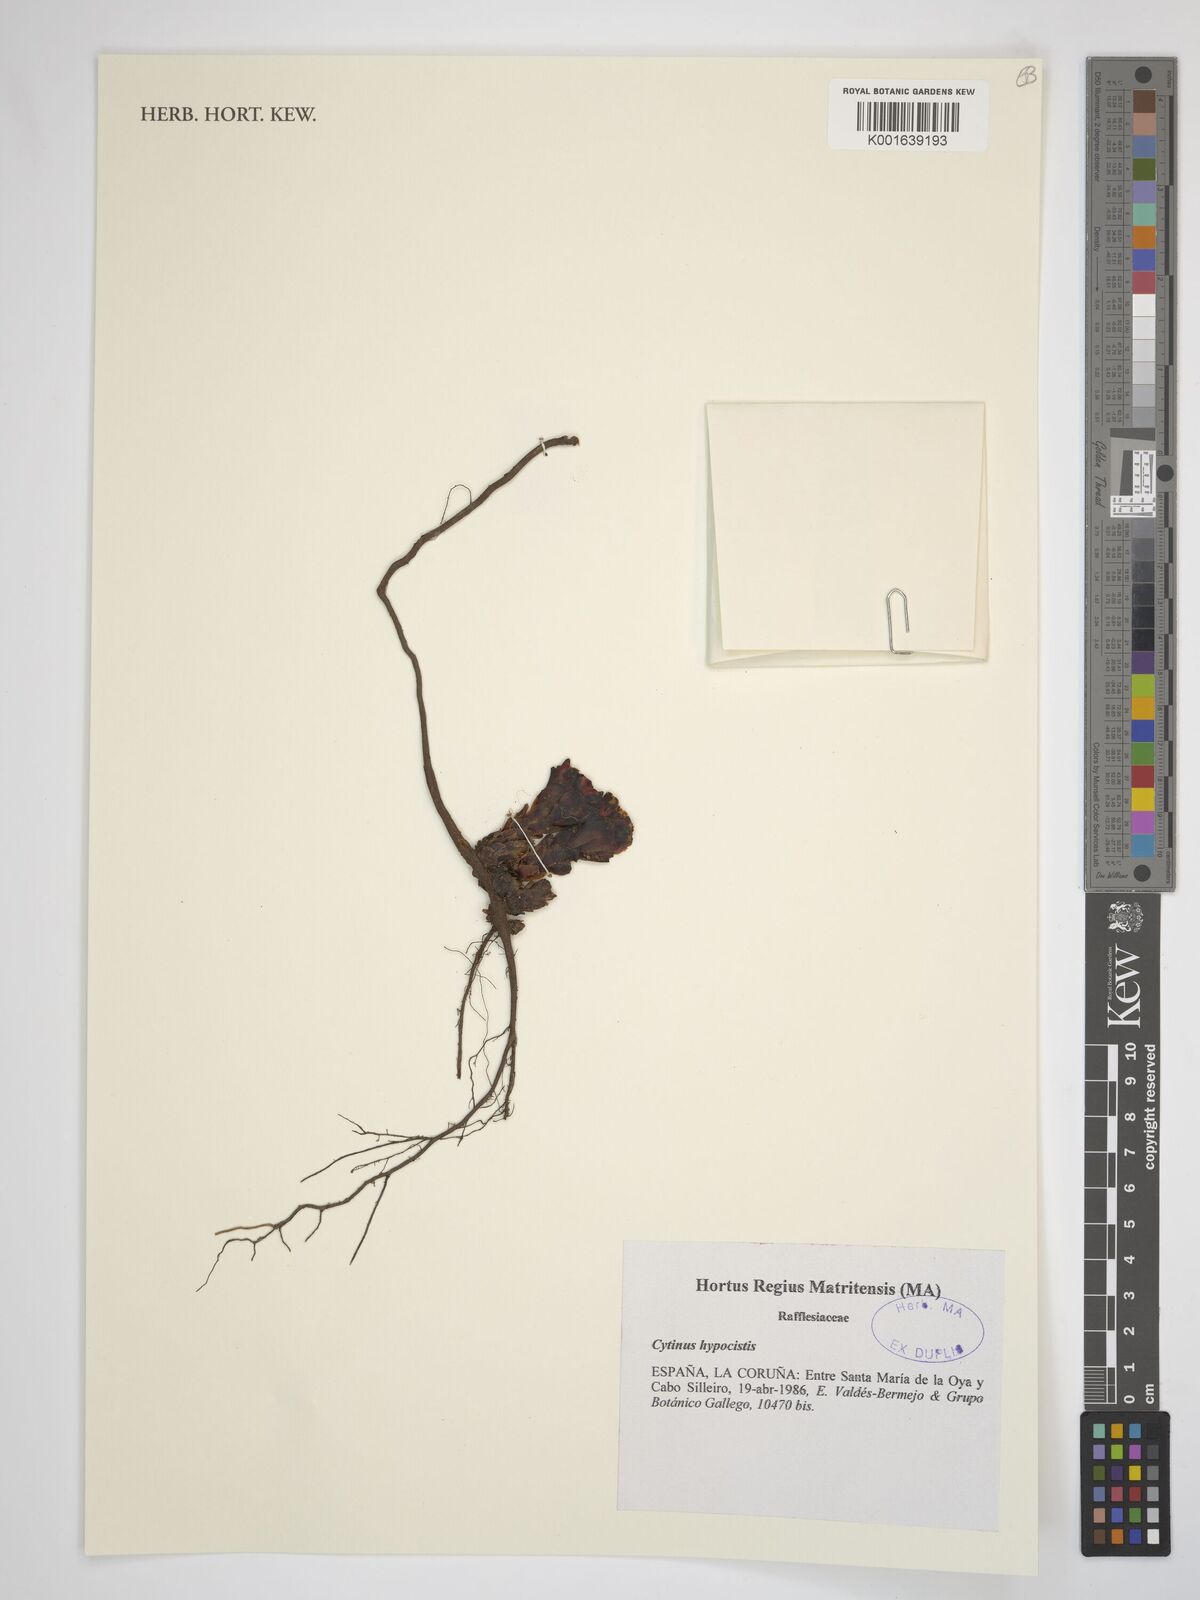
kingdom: Plantae
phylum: Tracheophyta
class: Magnoliopsida
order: Malvales
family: Cytinaceae
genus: Cytinus
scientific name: Cytinus hypocistis
